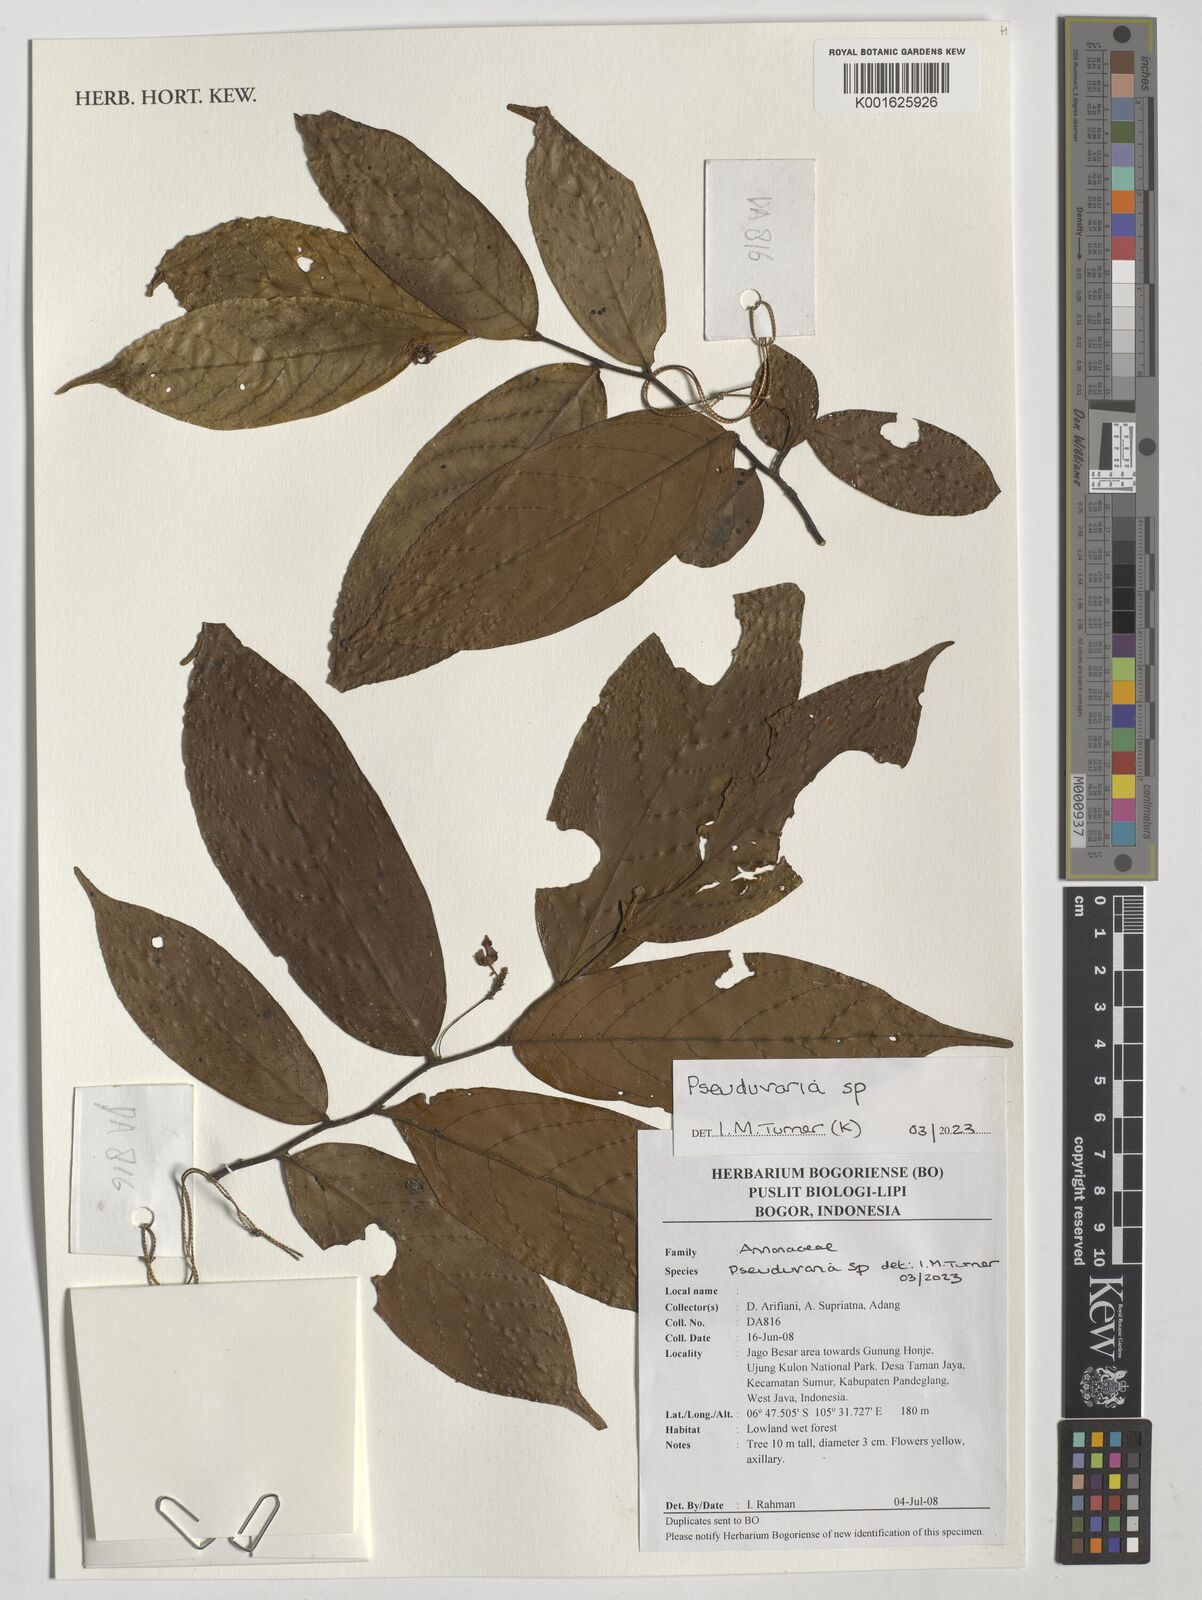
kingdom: Plantae
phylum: Tracheophyta
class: Magnoliopsida
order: Magnoliales
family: Annonaceae
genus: Pseuduvaria
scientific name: Pseuduvaria
